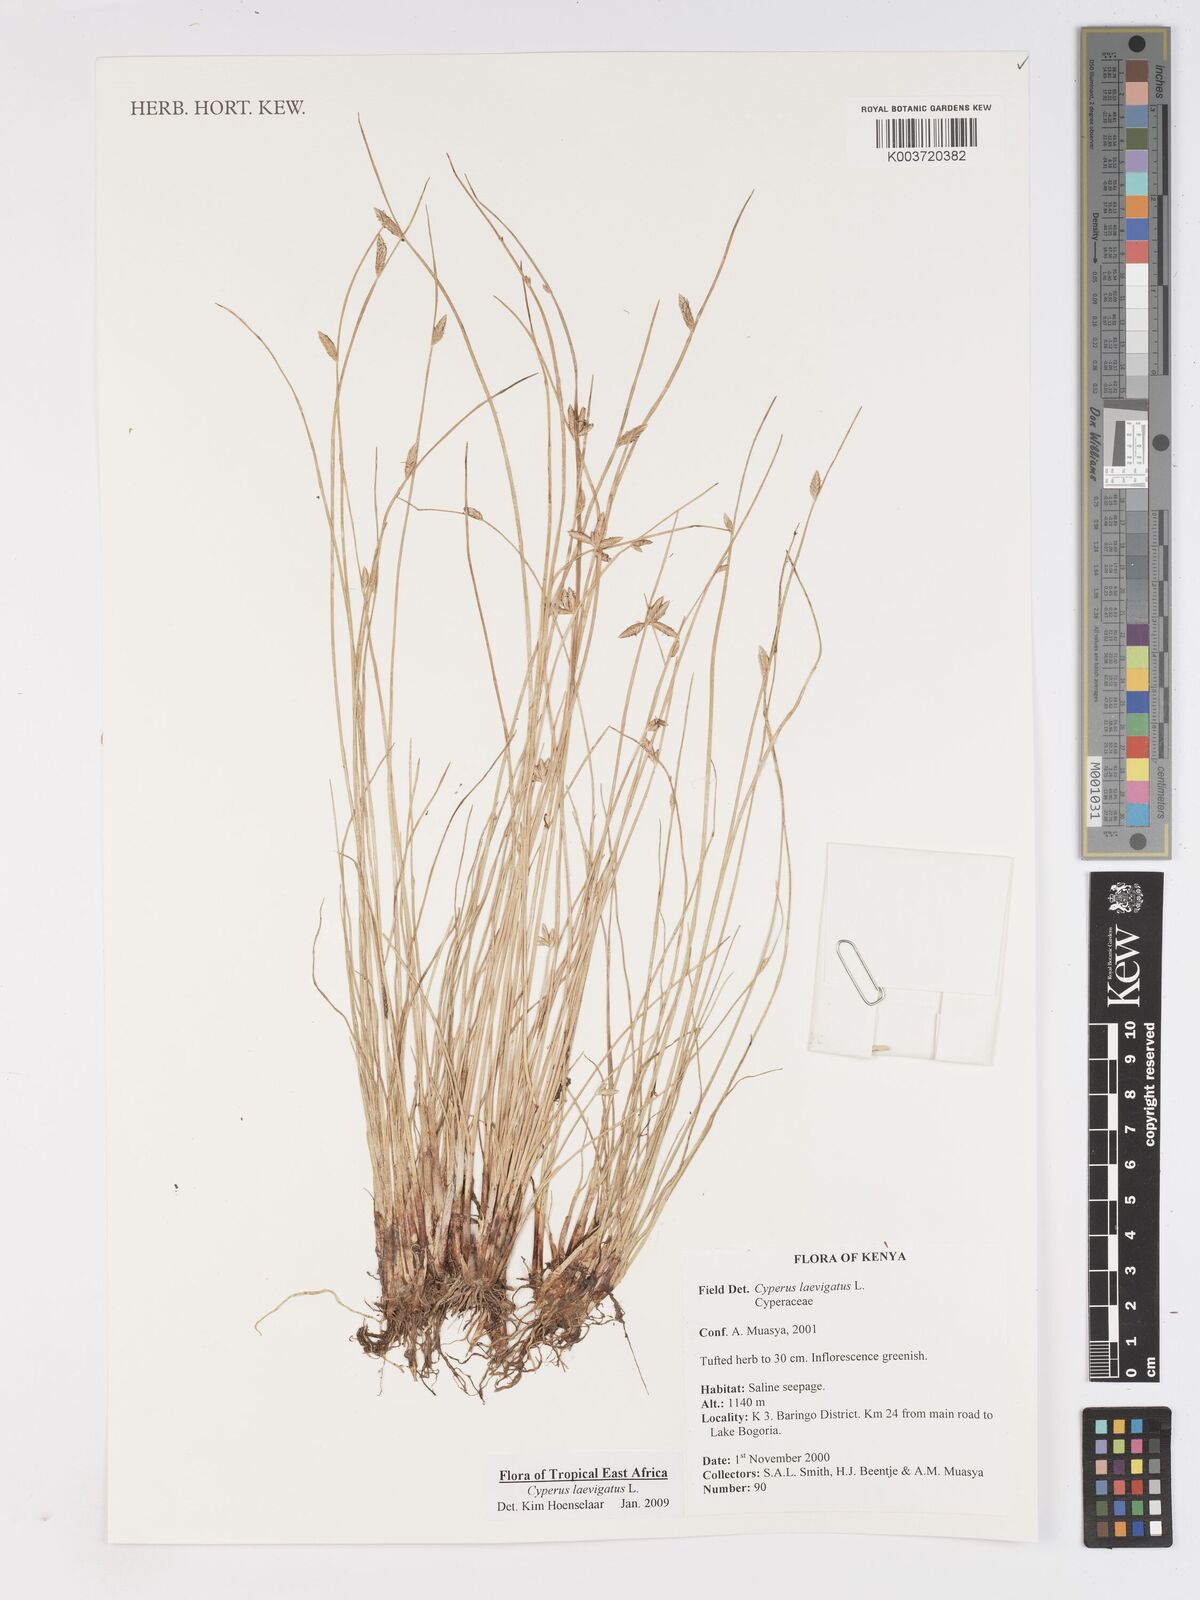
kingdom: Plantae
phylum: Tracheophyta
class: Liliopsida
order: Poales
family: Cyperaceae
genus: Cyperus
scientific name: Cyperus laevigatus
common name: Smooth flat sedge
